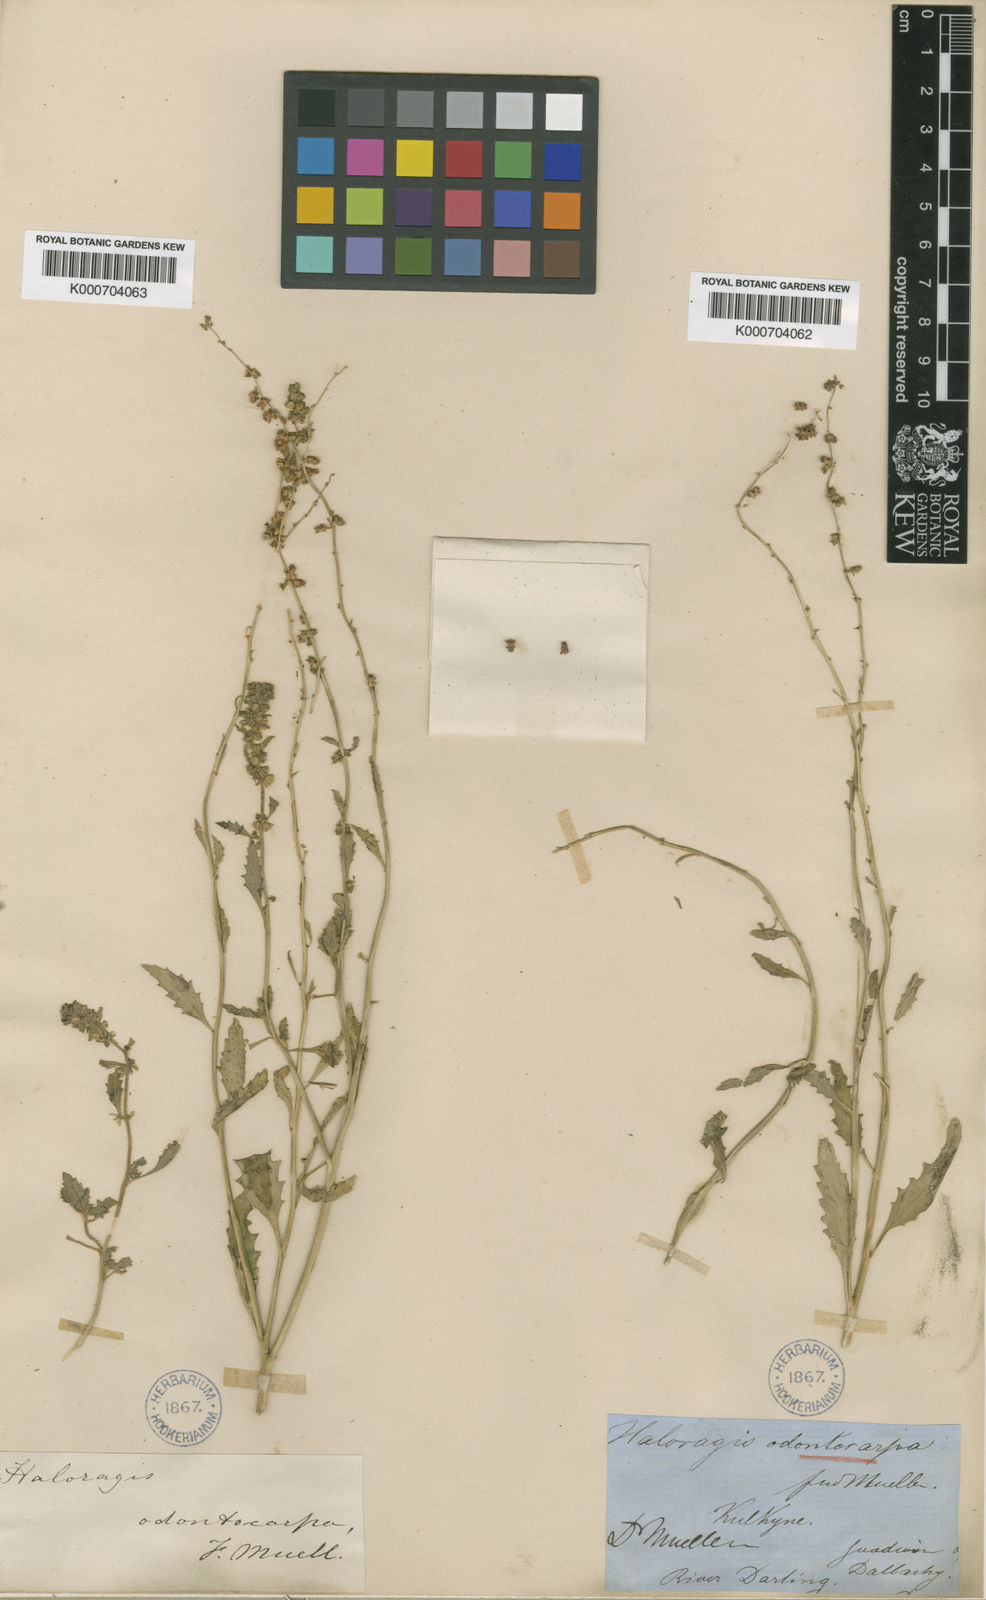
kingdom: Plantae
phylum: Tracheophyta
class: Magnoliopsida
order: Saxifragales
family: Haloragaceae
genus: Haloragis
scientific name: Haloragis odontocarpa
